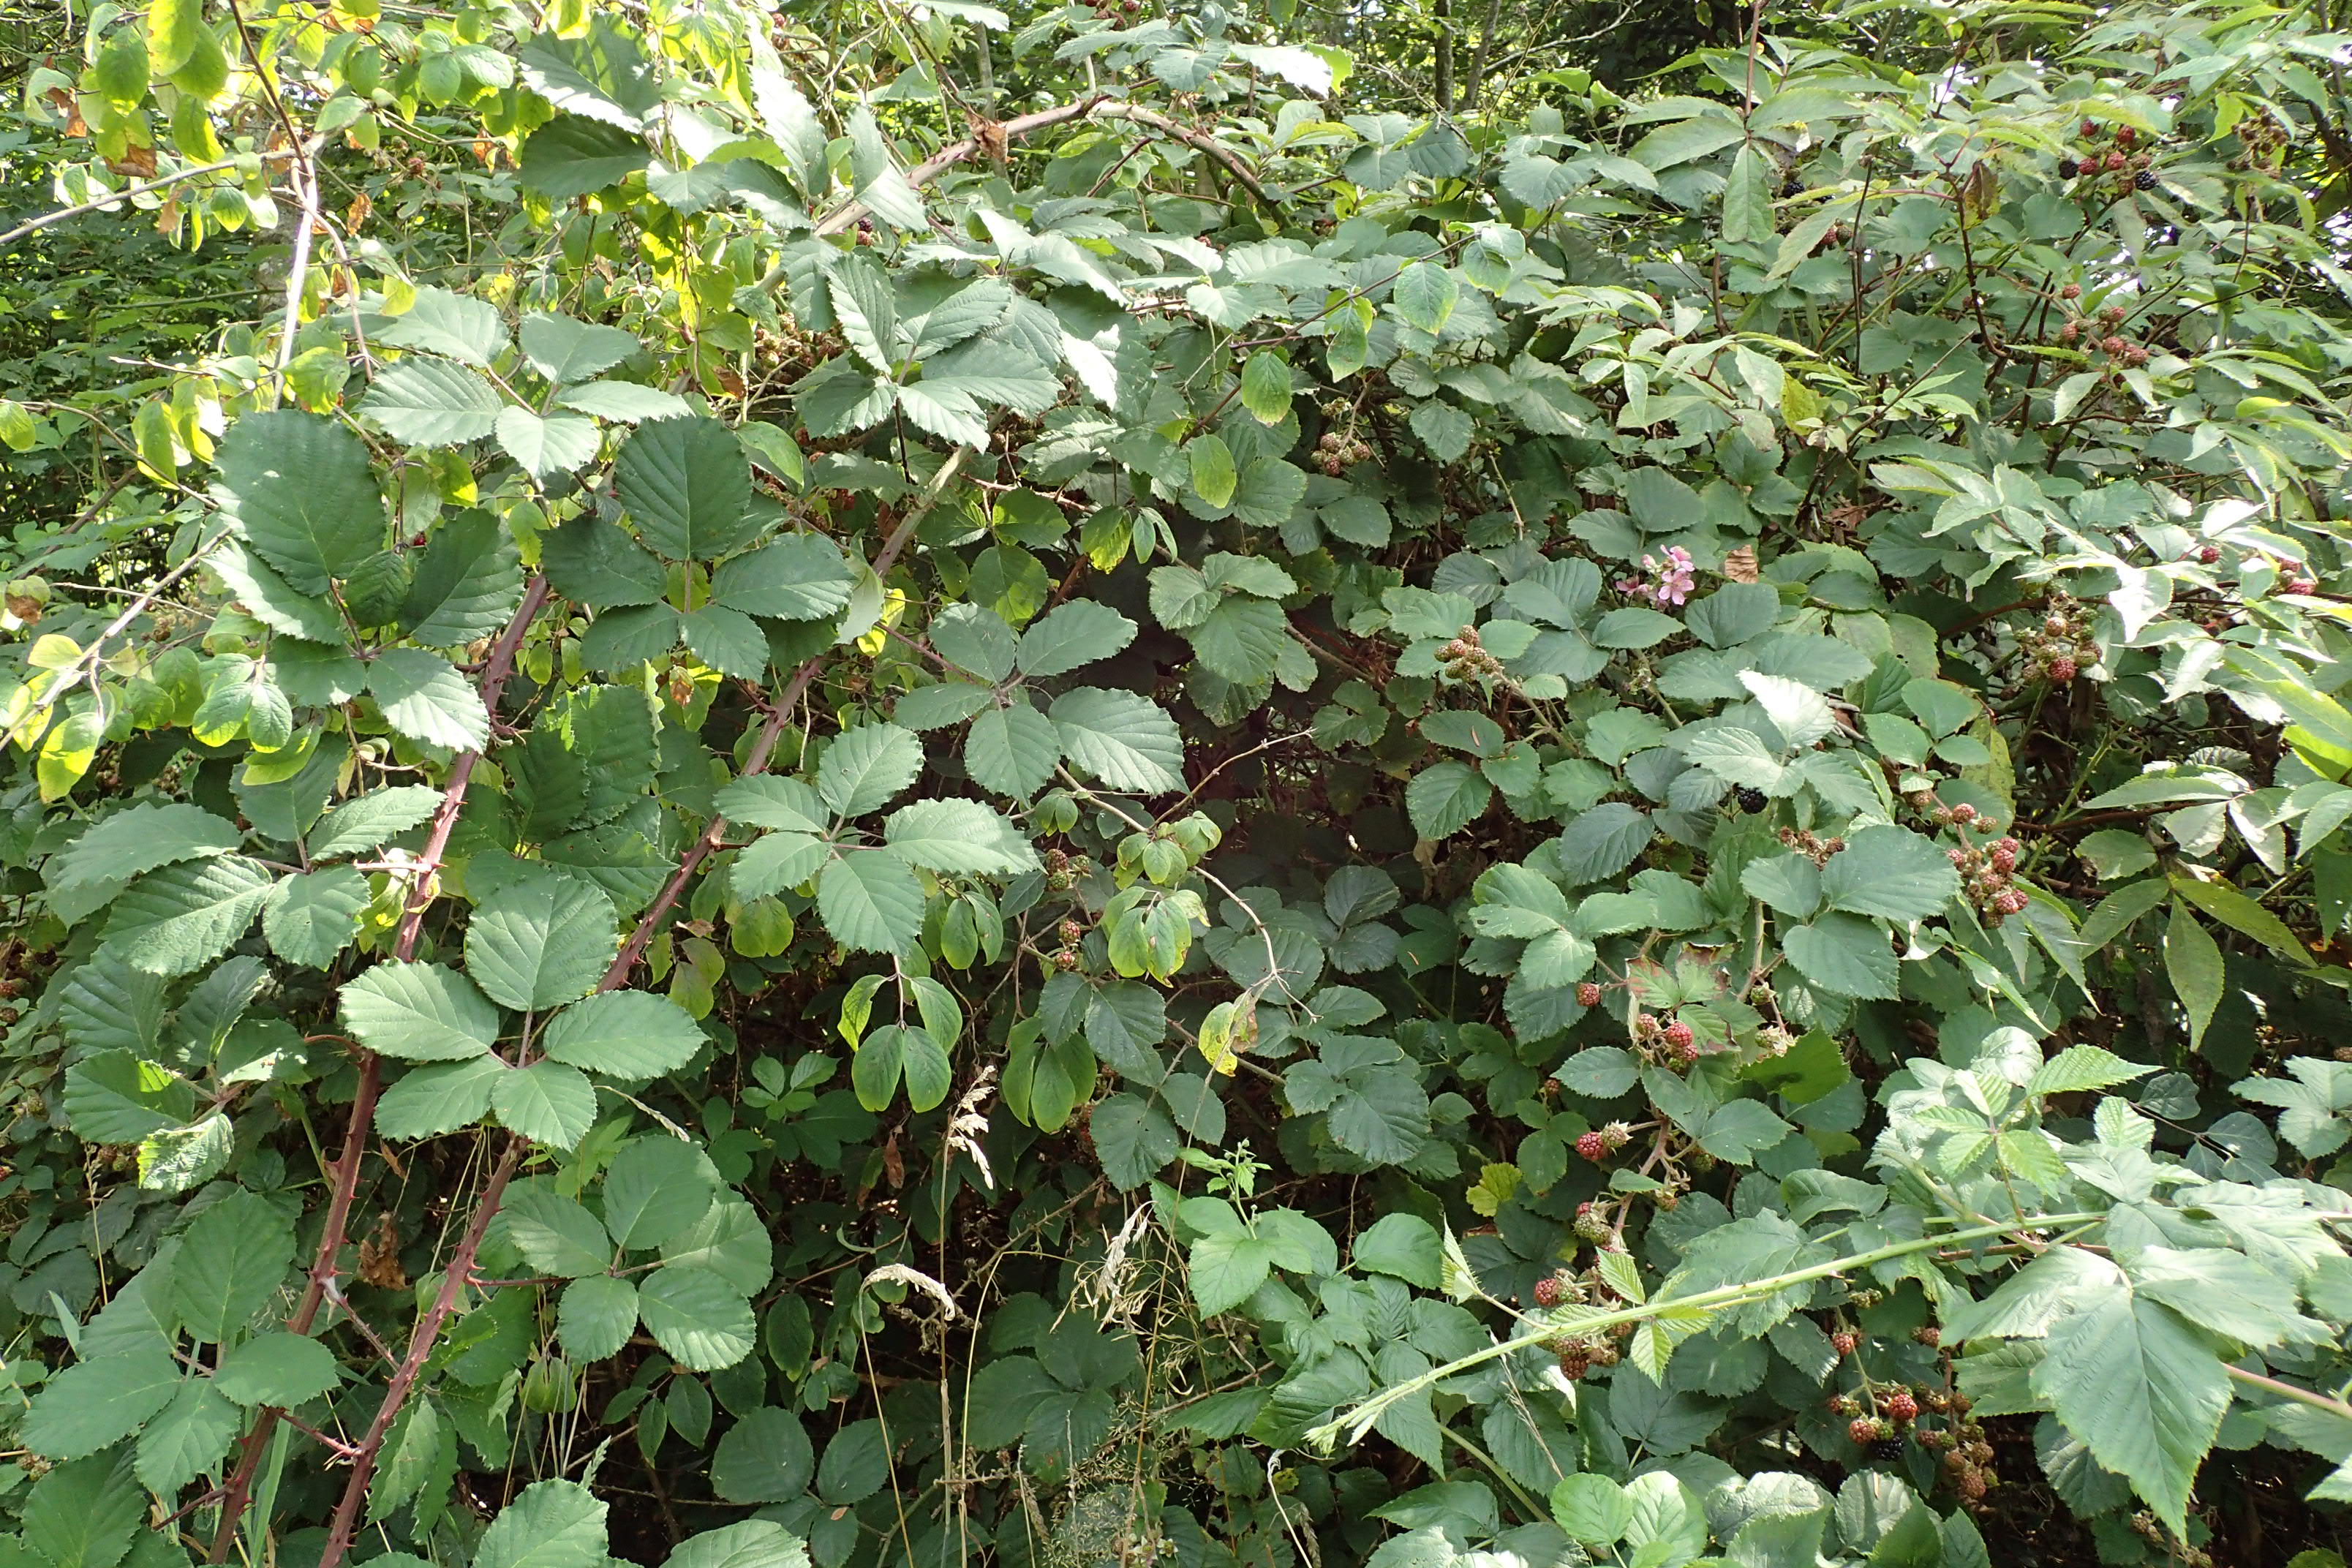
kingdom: Plantae
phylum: Tracheophyta
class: Magnoliopsida
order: Rosales
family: Rosaceae
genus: Rubus
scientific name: Rubus vestitus
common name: Rundbladet brombær
